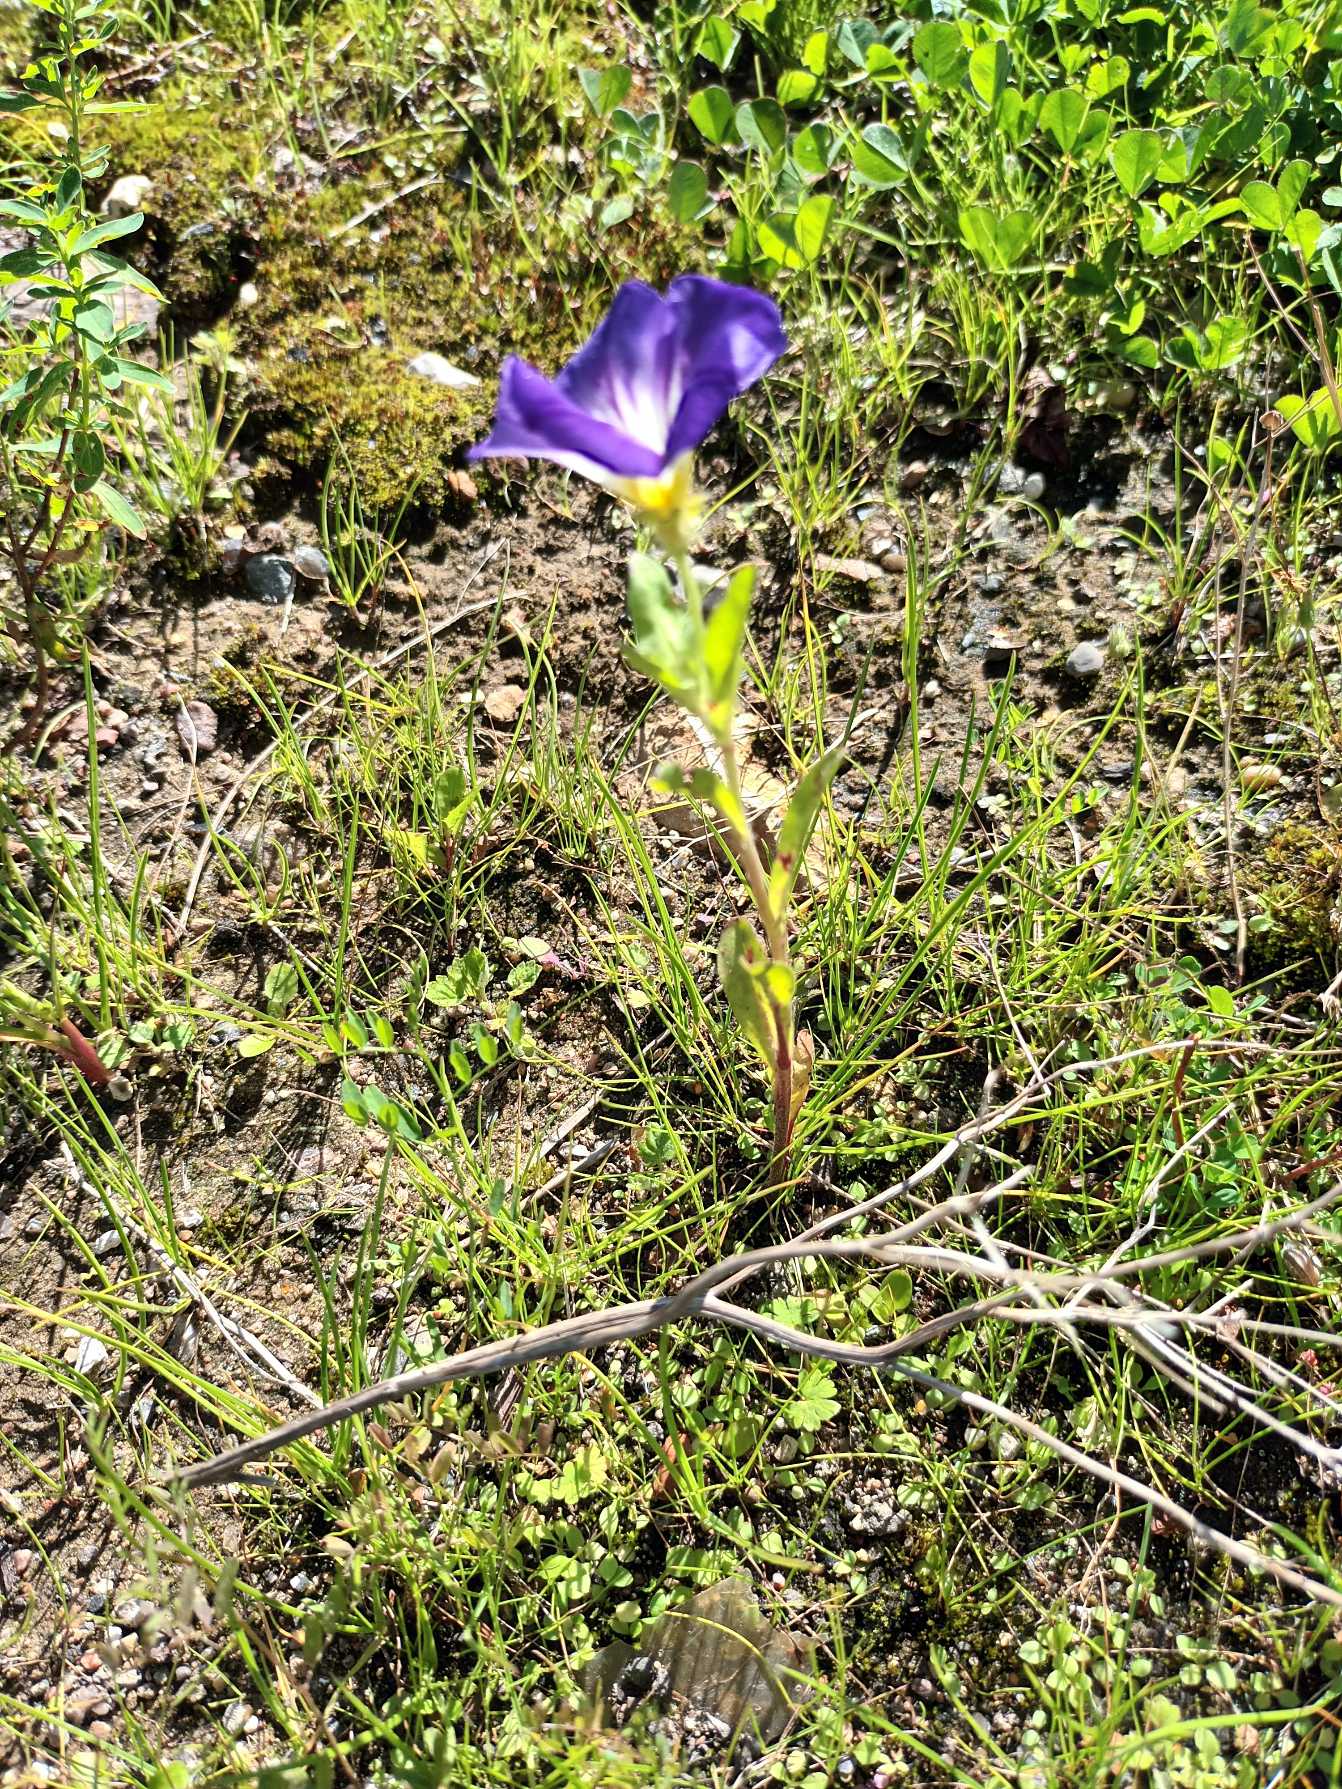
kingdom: Plantae
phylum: Tracheophyta
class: Magnoliopsida
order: Solanales
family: Convolvulaceae
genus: Convolvulus
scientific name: Convolvulus tricolor
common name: Jomfruskørt
